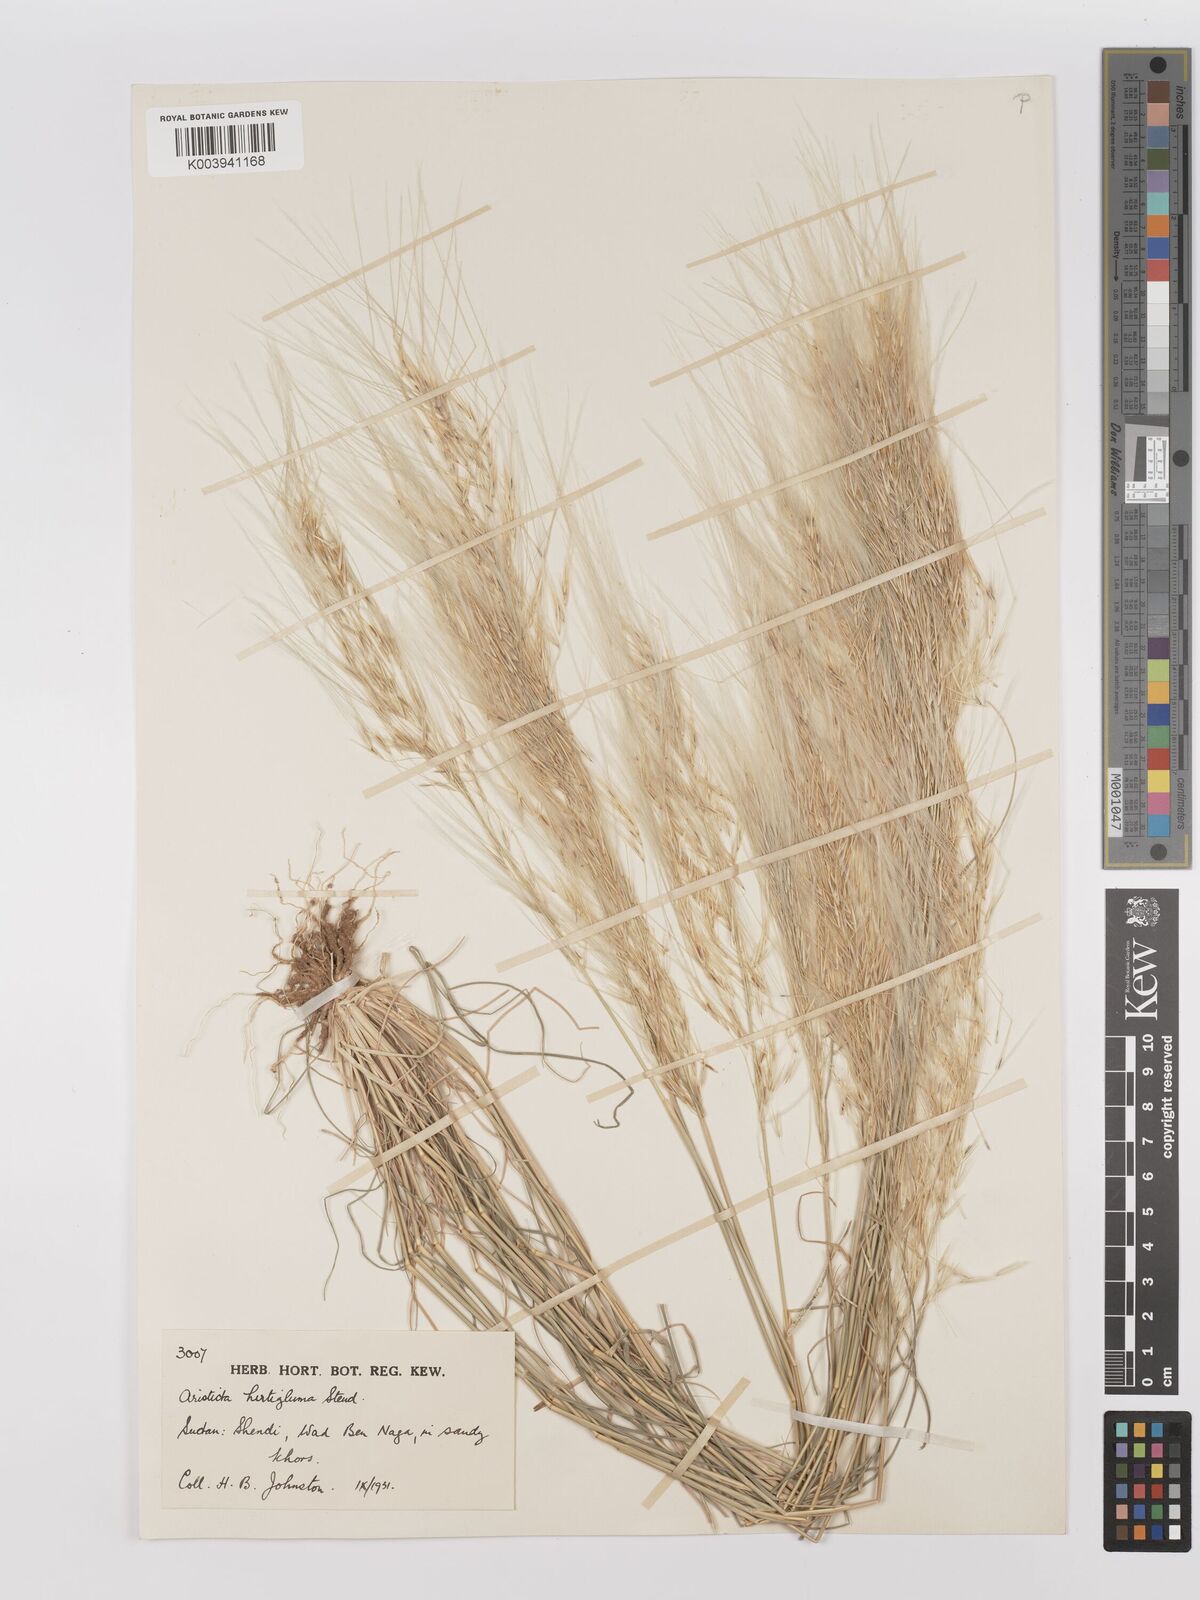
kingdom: Plantae
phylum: Tracheophyta
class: Liliopsida
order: Poales
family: Poaceae
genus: Stipagrostis
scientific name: Stipagrostis hirtigluma
